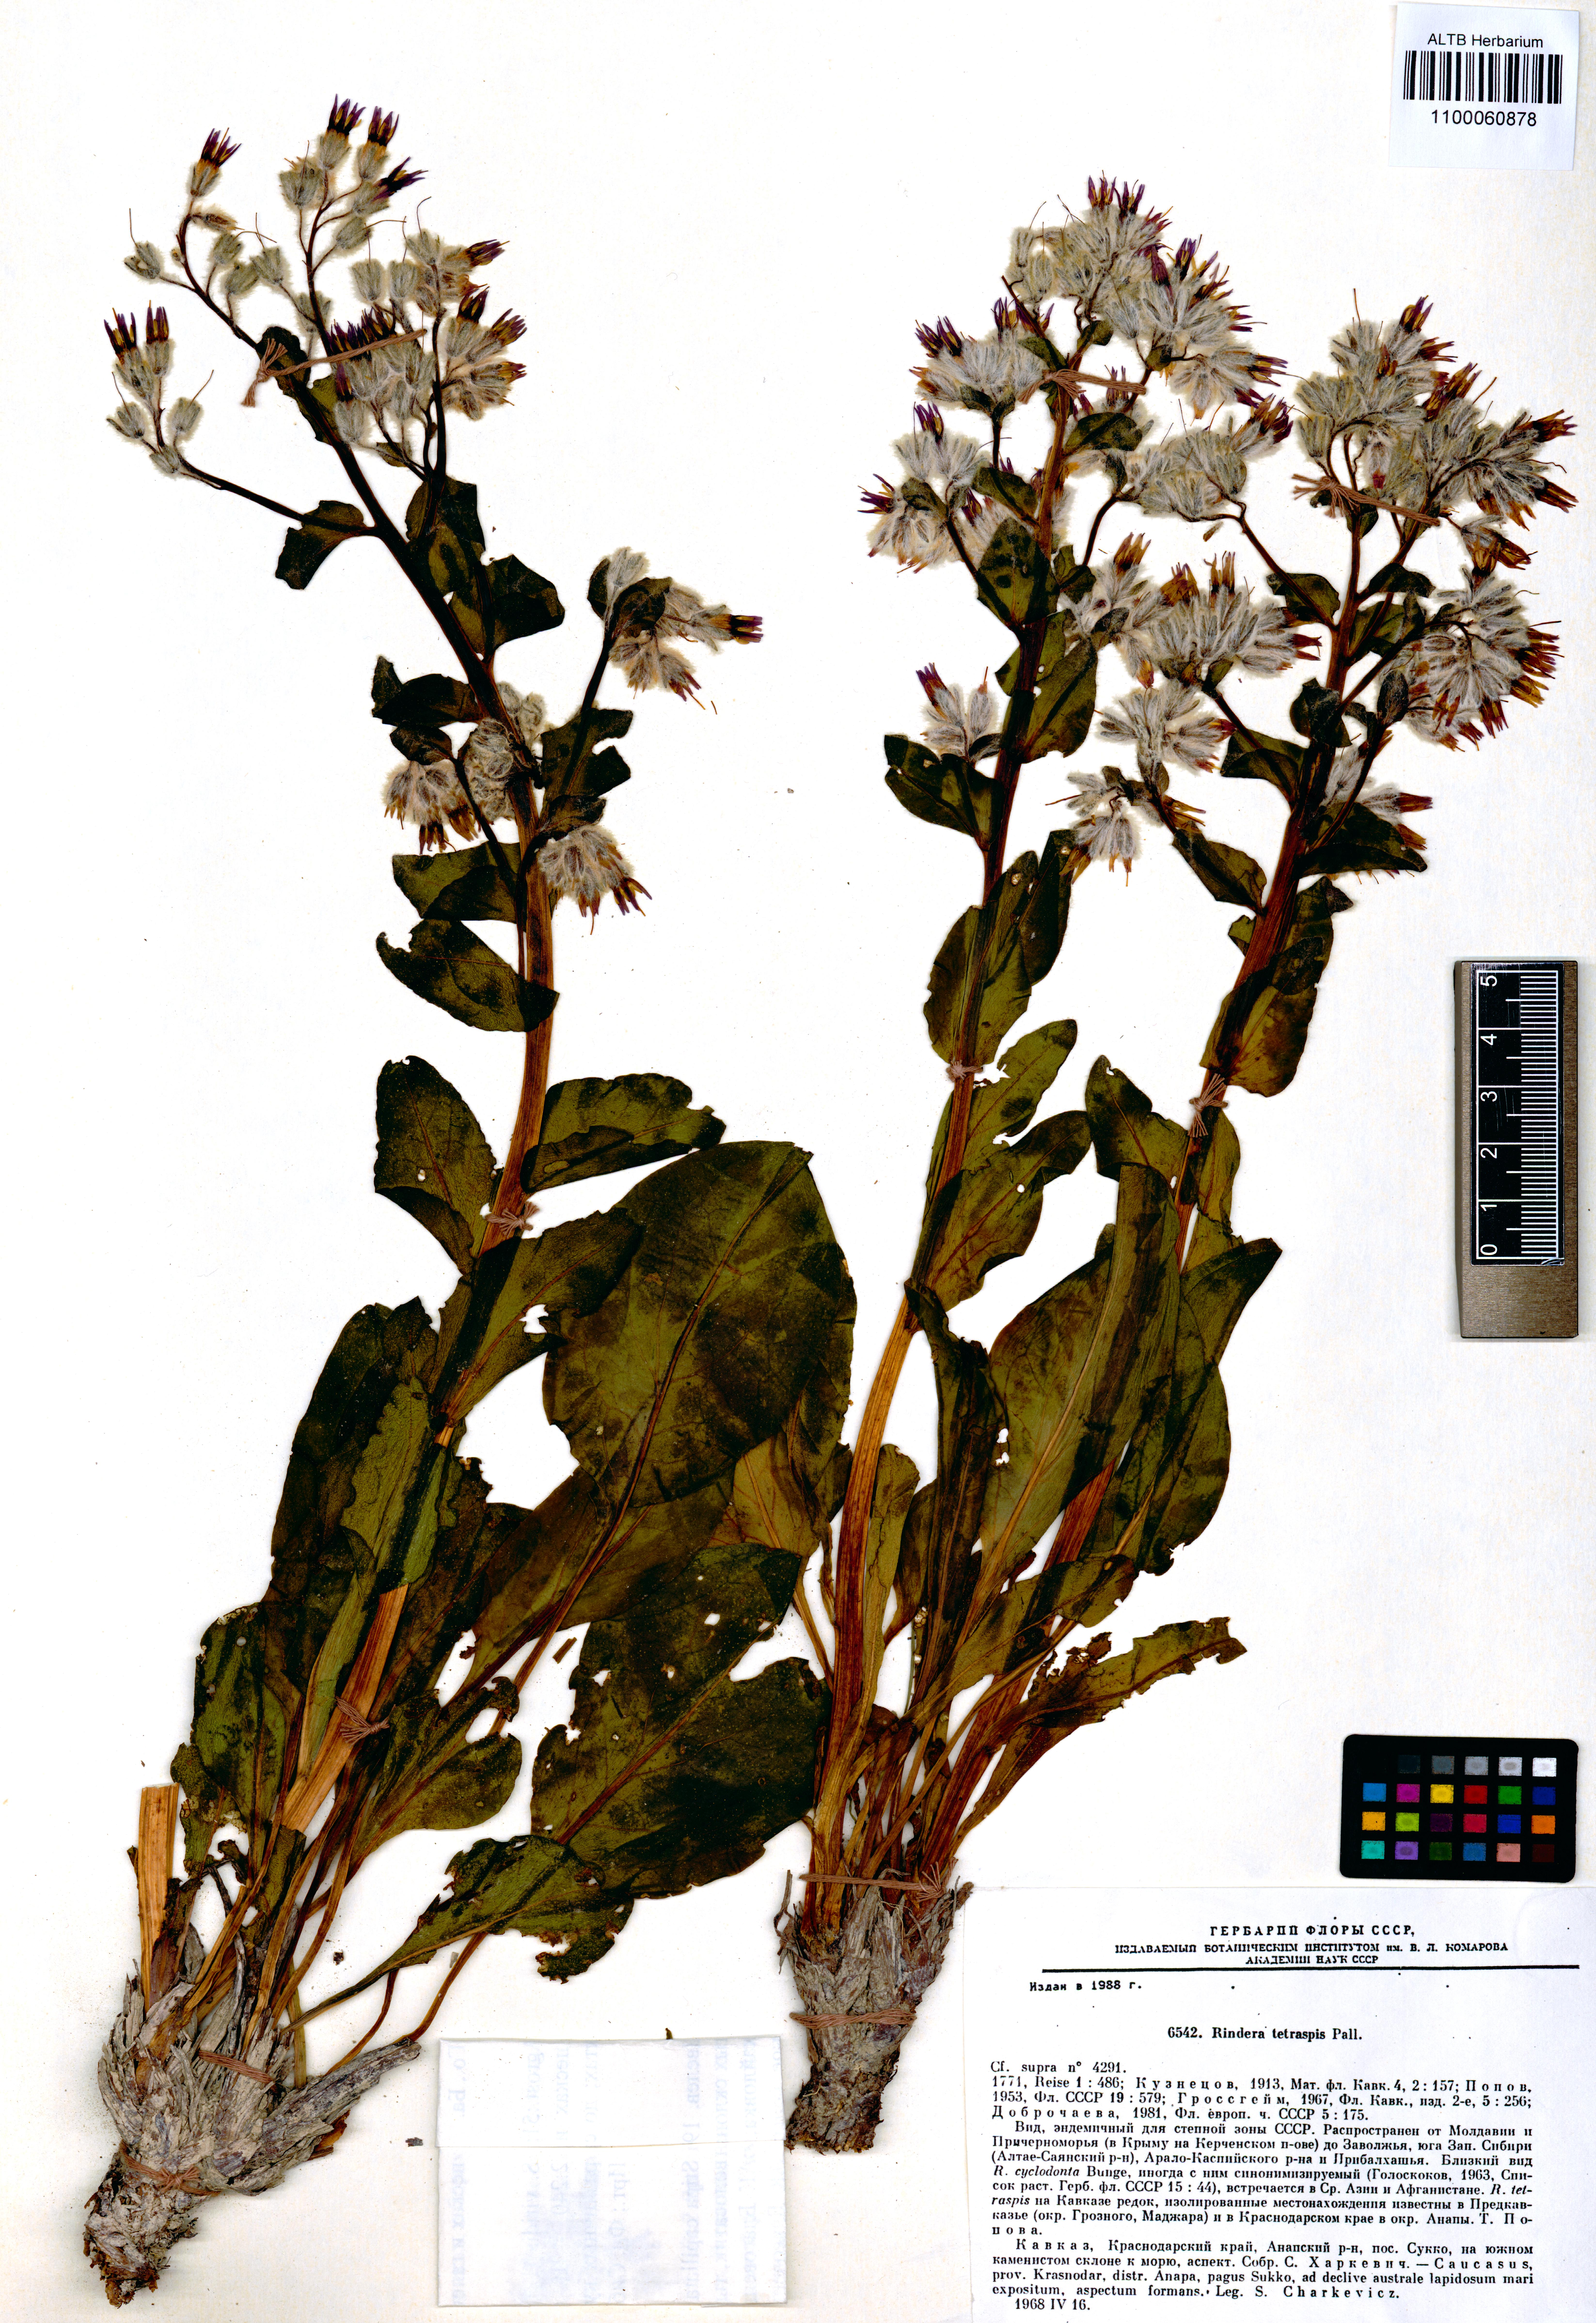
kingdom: Plantae
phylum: Tracheophyta
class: Magnoliopsida
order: Boraginales
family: Boraginaceae
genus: Rindera
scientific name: Rindera tetraspis
